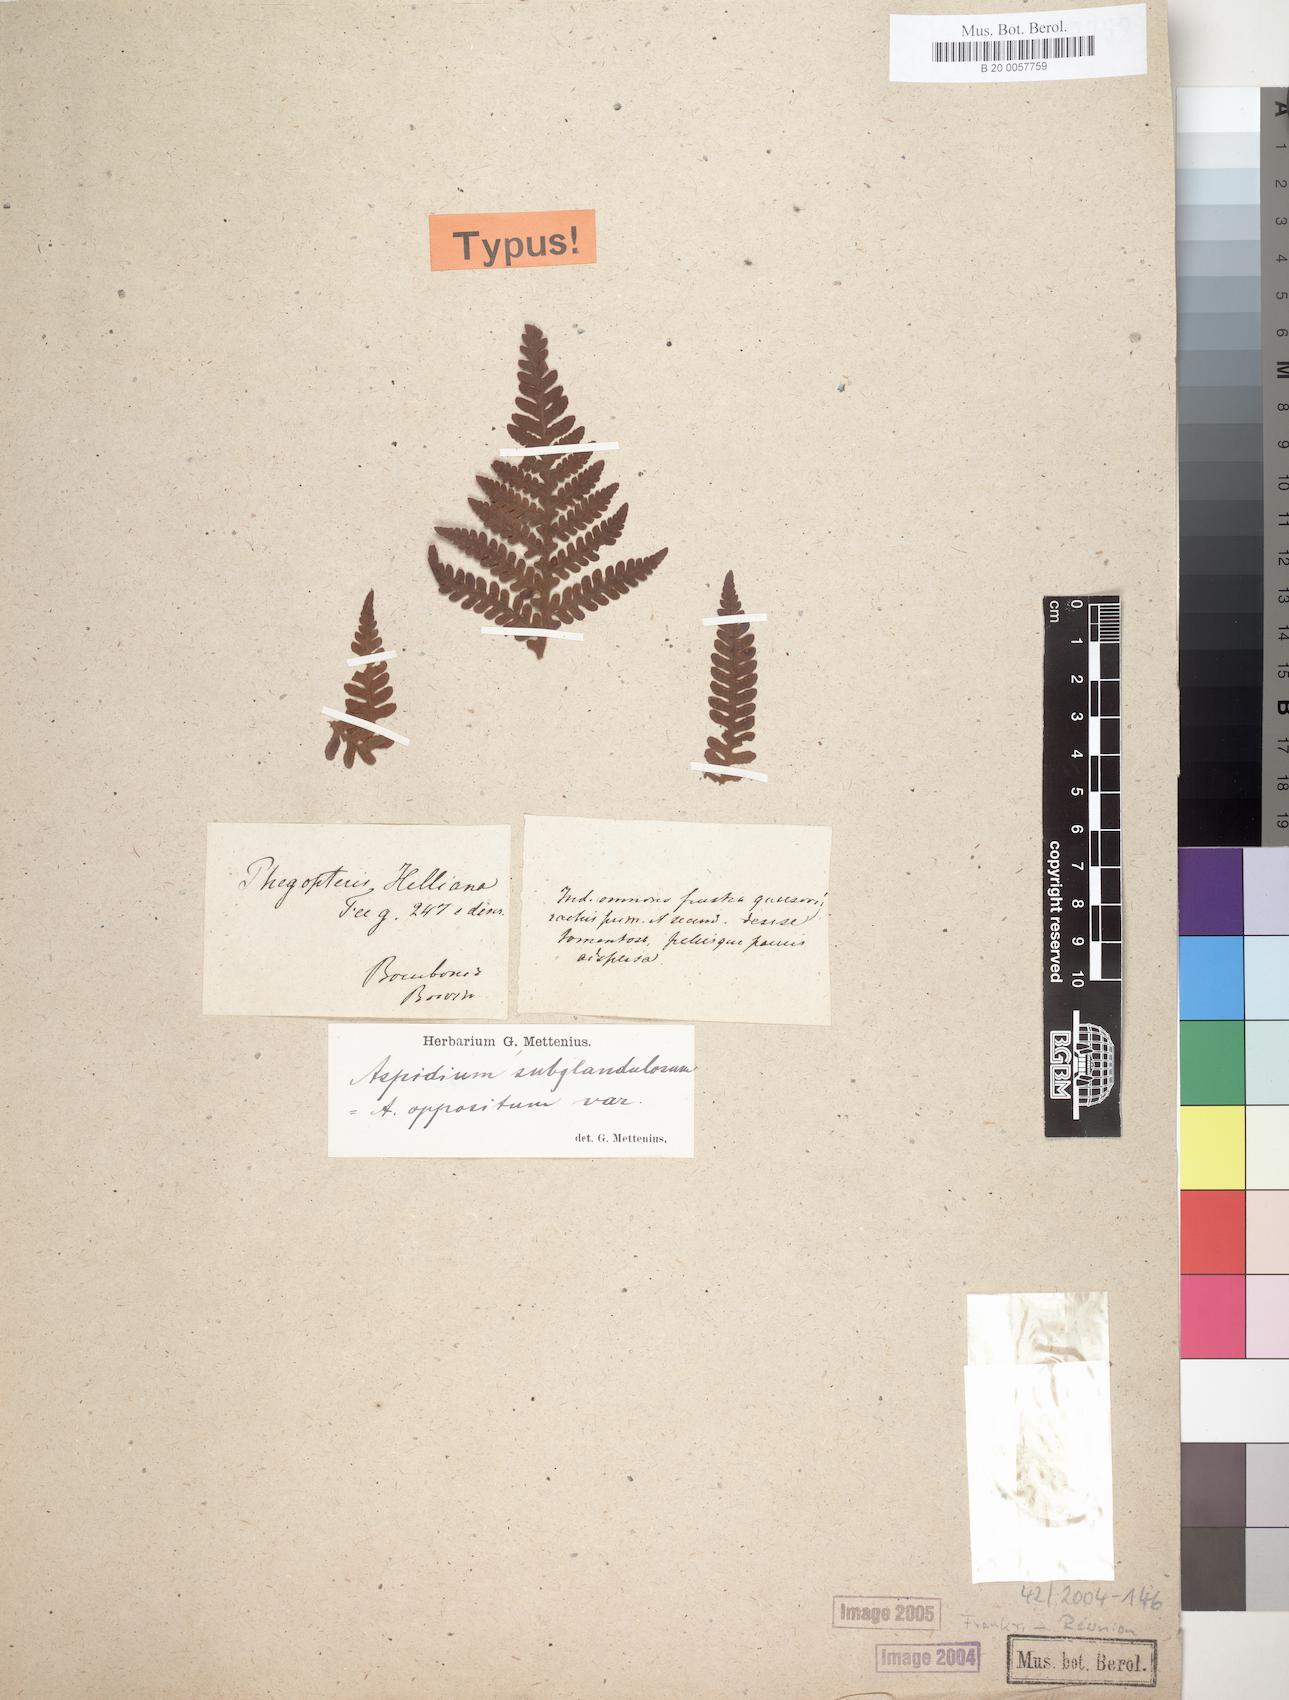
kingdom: Plantae
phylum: Tracheophyta
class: Polypodiopsida
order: Polypodiales
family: Thelypteridaceae
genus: Pseudophegopteris
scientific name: Pseudophegopteris aubertii
